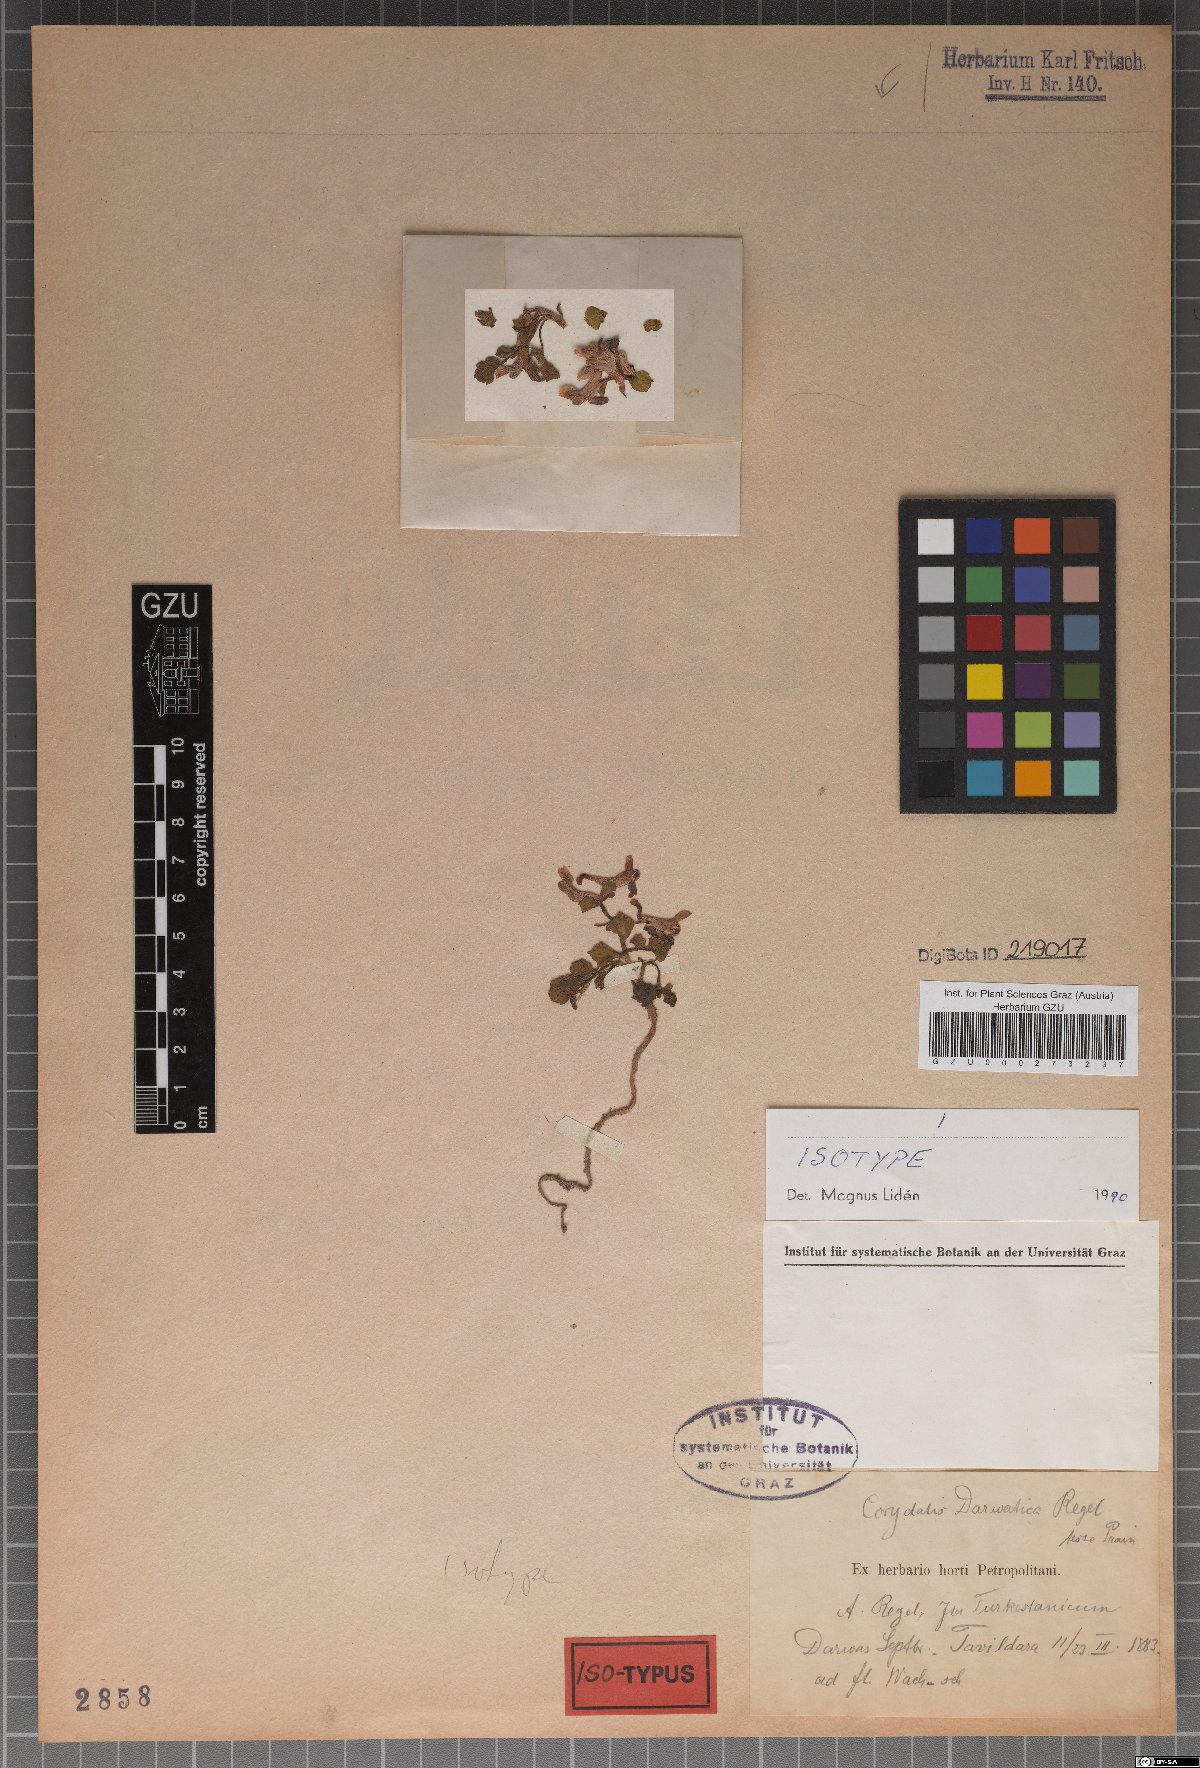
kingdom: Plantae
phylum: Tracheophyta
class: Magnoliopsida
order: Ranunculales
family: Papaveraceae
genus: Corydalis
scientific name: Corydalis darwasica
